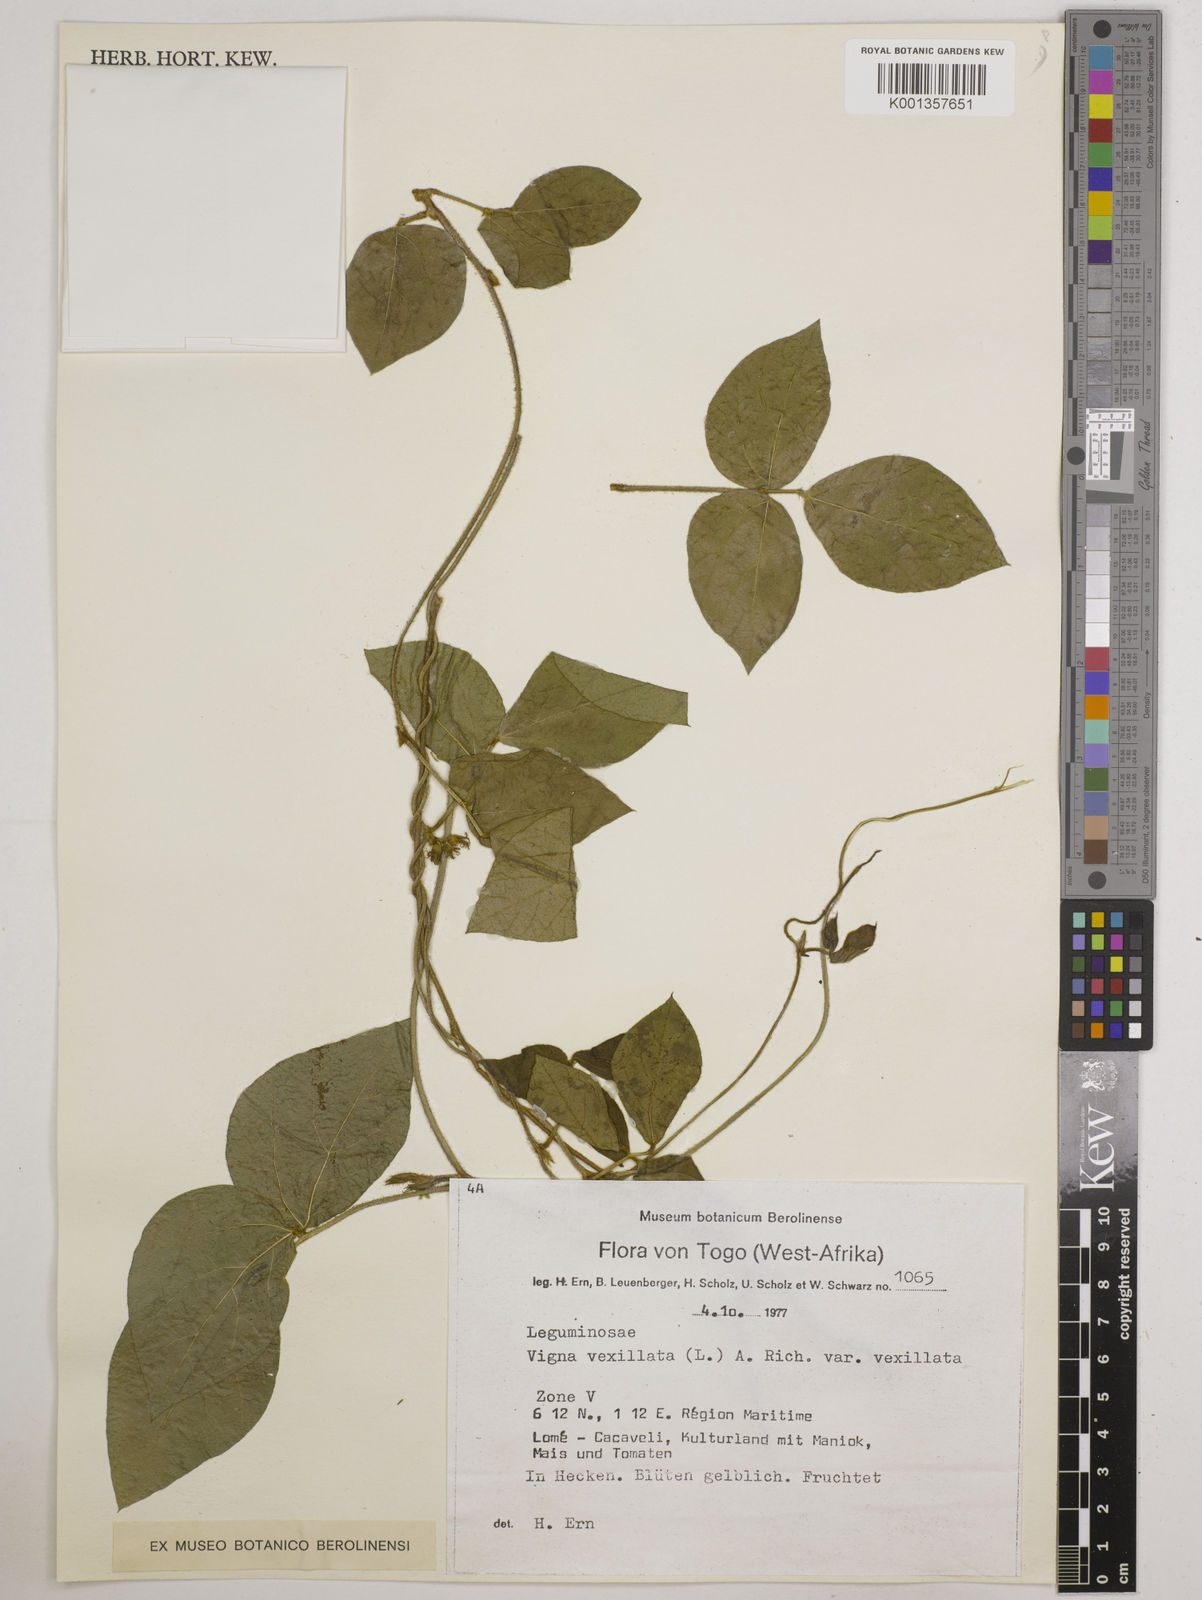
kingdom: Plantae
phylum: Tracheophyta
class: Magnoliopsida
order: Fabales
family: Fabaceae
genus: Vigna
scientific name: Vigna vexillata
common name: Zombi pea
